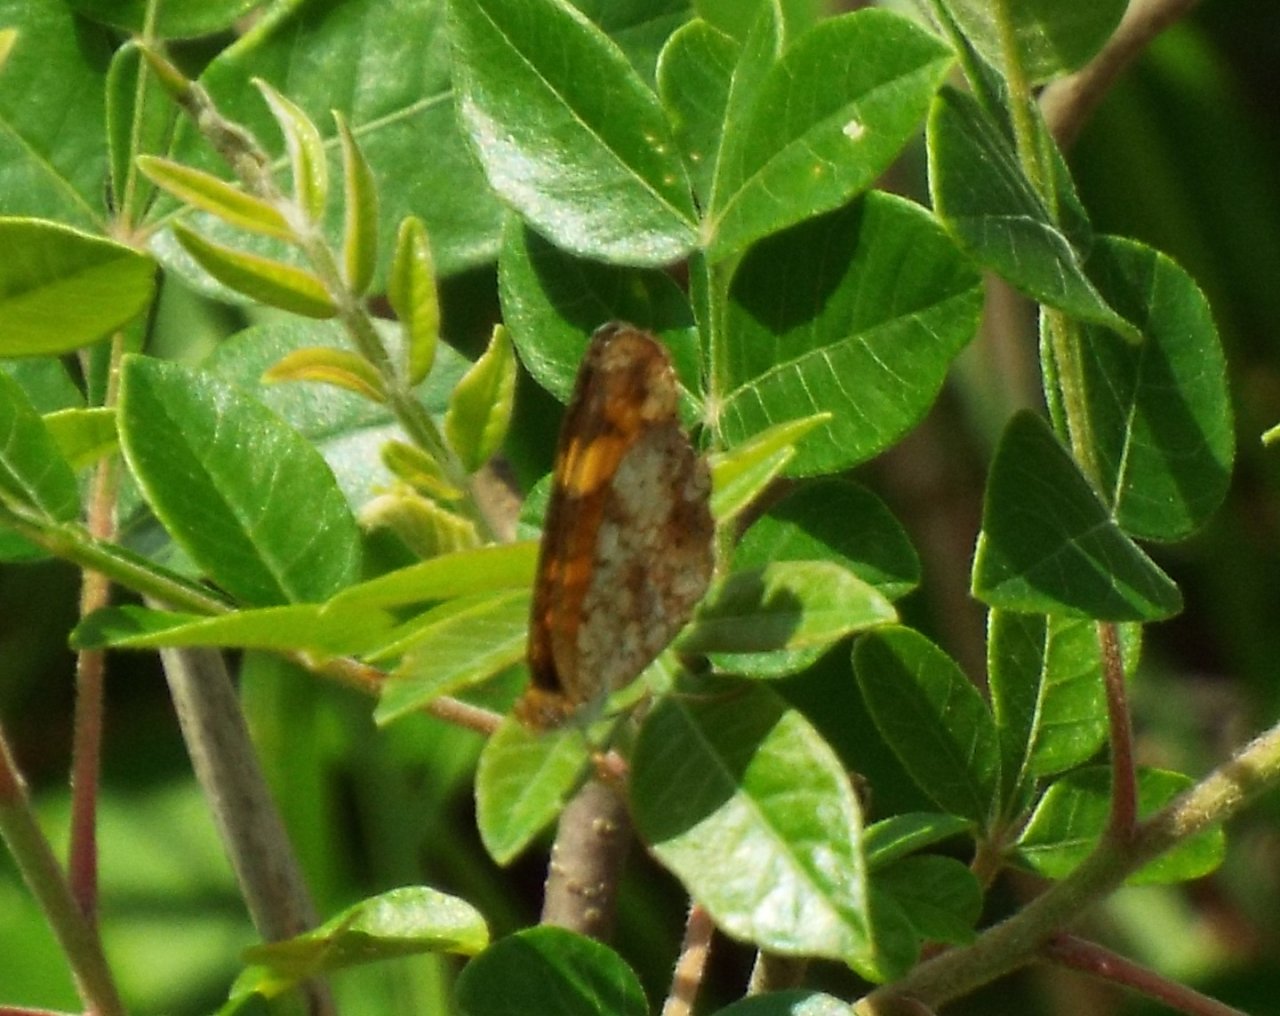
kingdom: Animalia
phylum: Arthropoda
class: Insecta
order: Lepidoptera
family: Nymphalidae
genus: Phyciodes
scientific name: Phyciodes tharos
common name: Pearl Crescent
